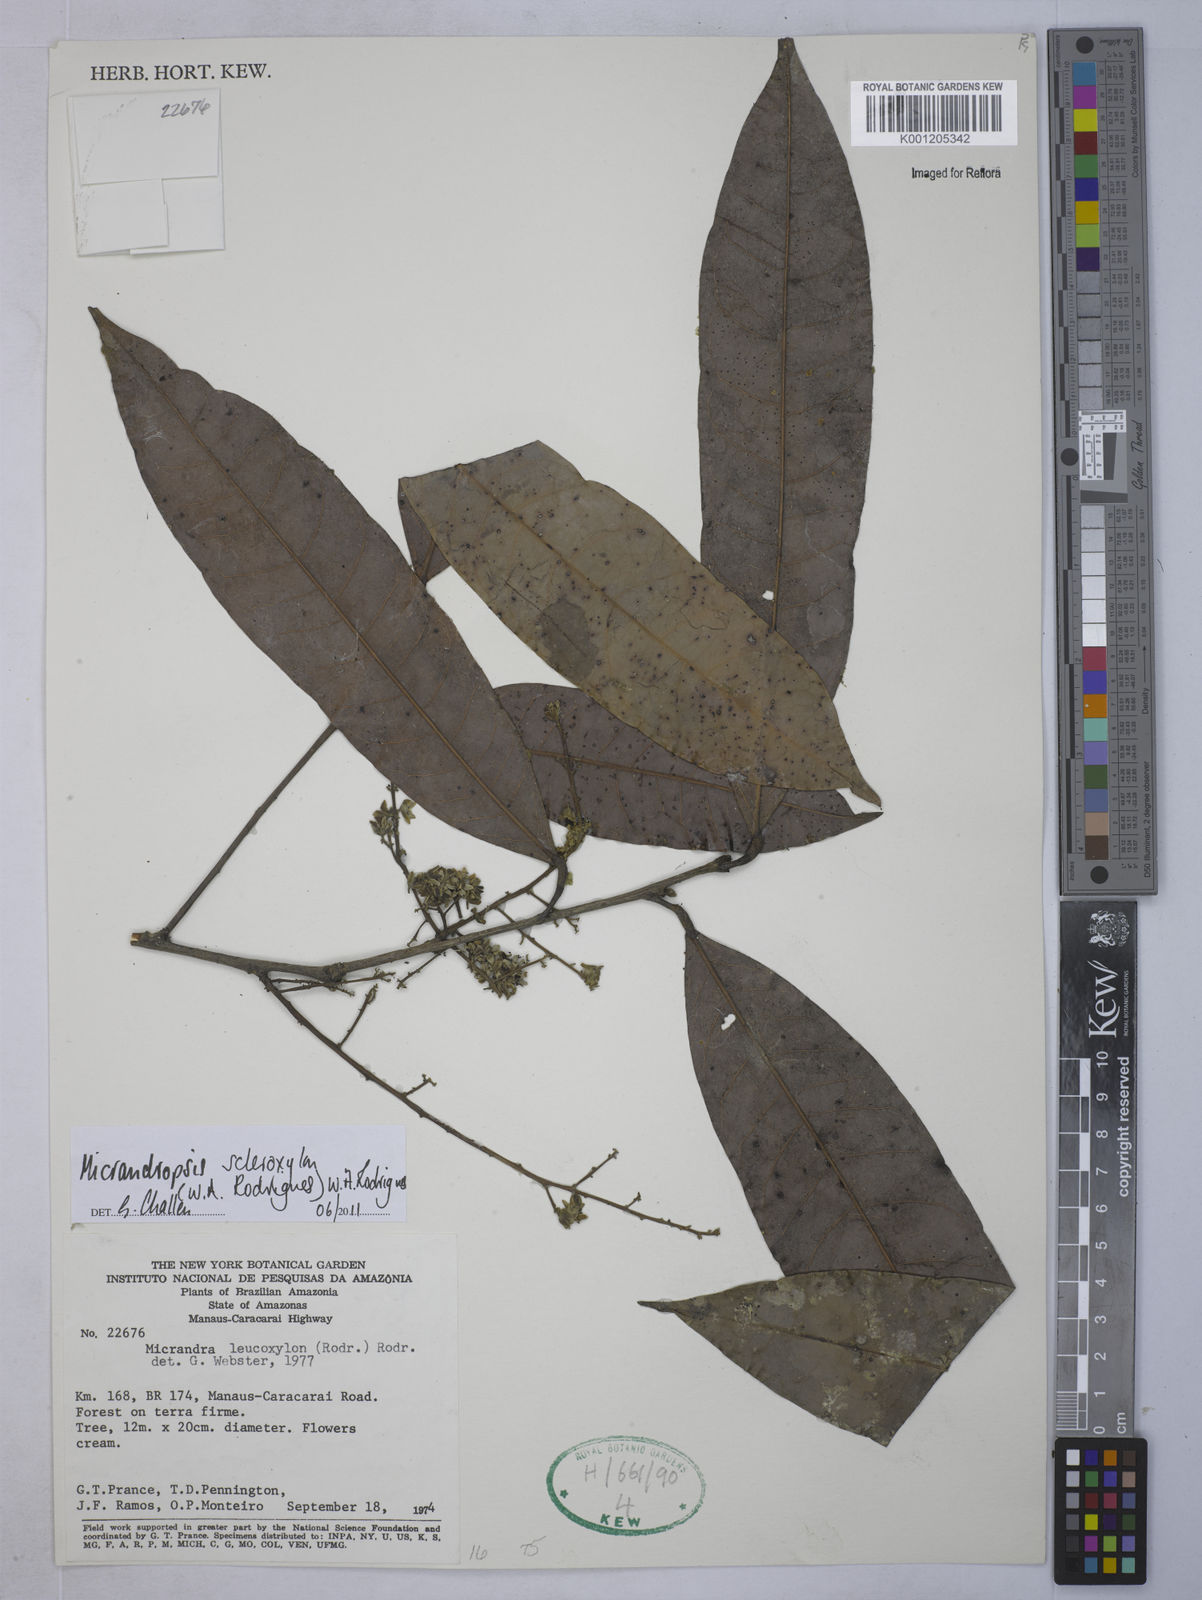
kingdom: Plantae
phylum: Tracheophyta
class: Magnoliopsida
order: Malpighiales
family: Euphorbiaceae
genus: Micrandropsis
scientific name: Micrandropsis scleroxylon
